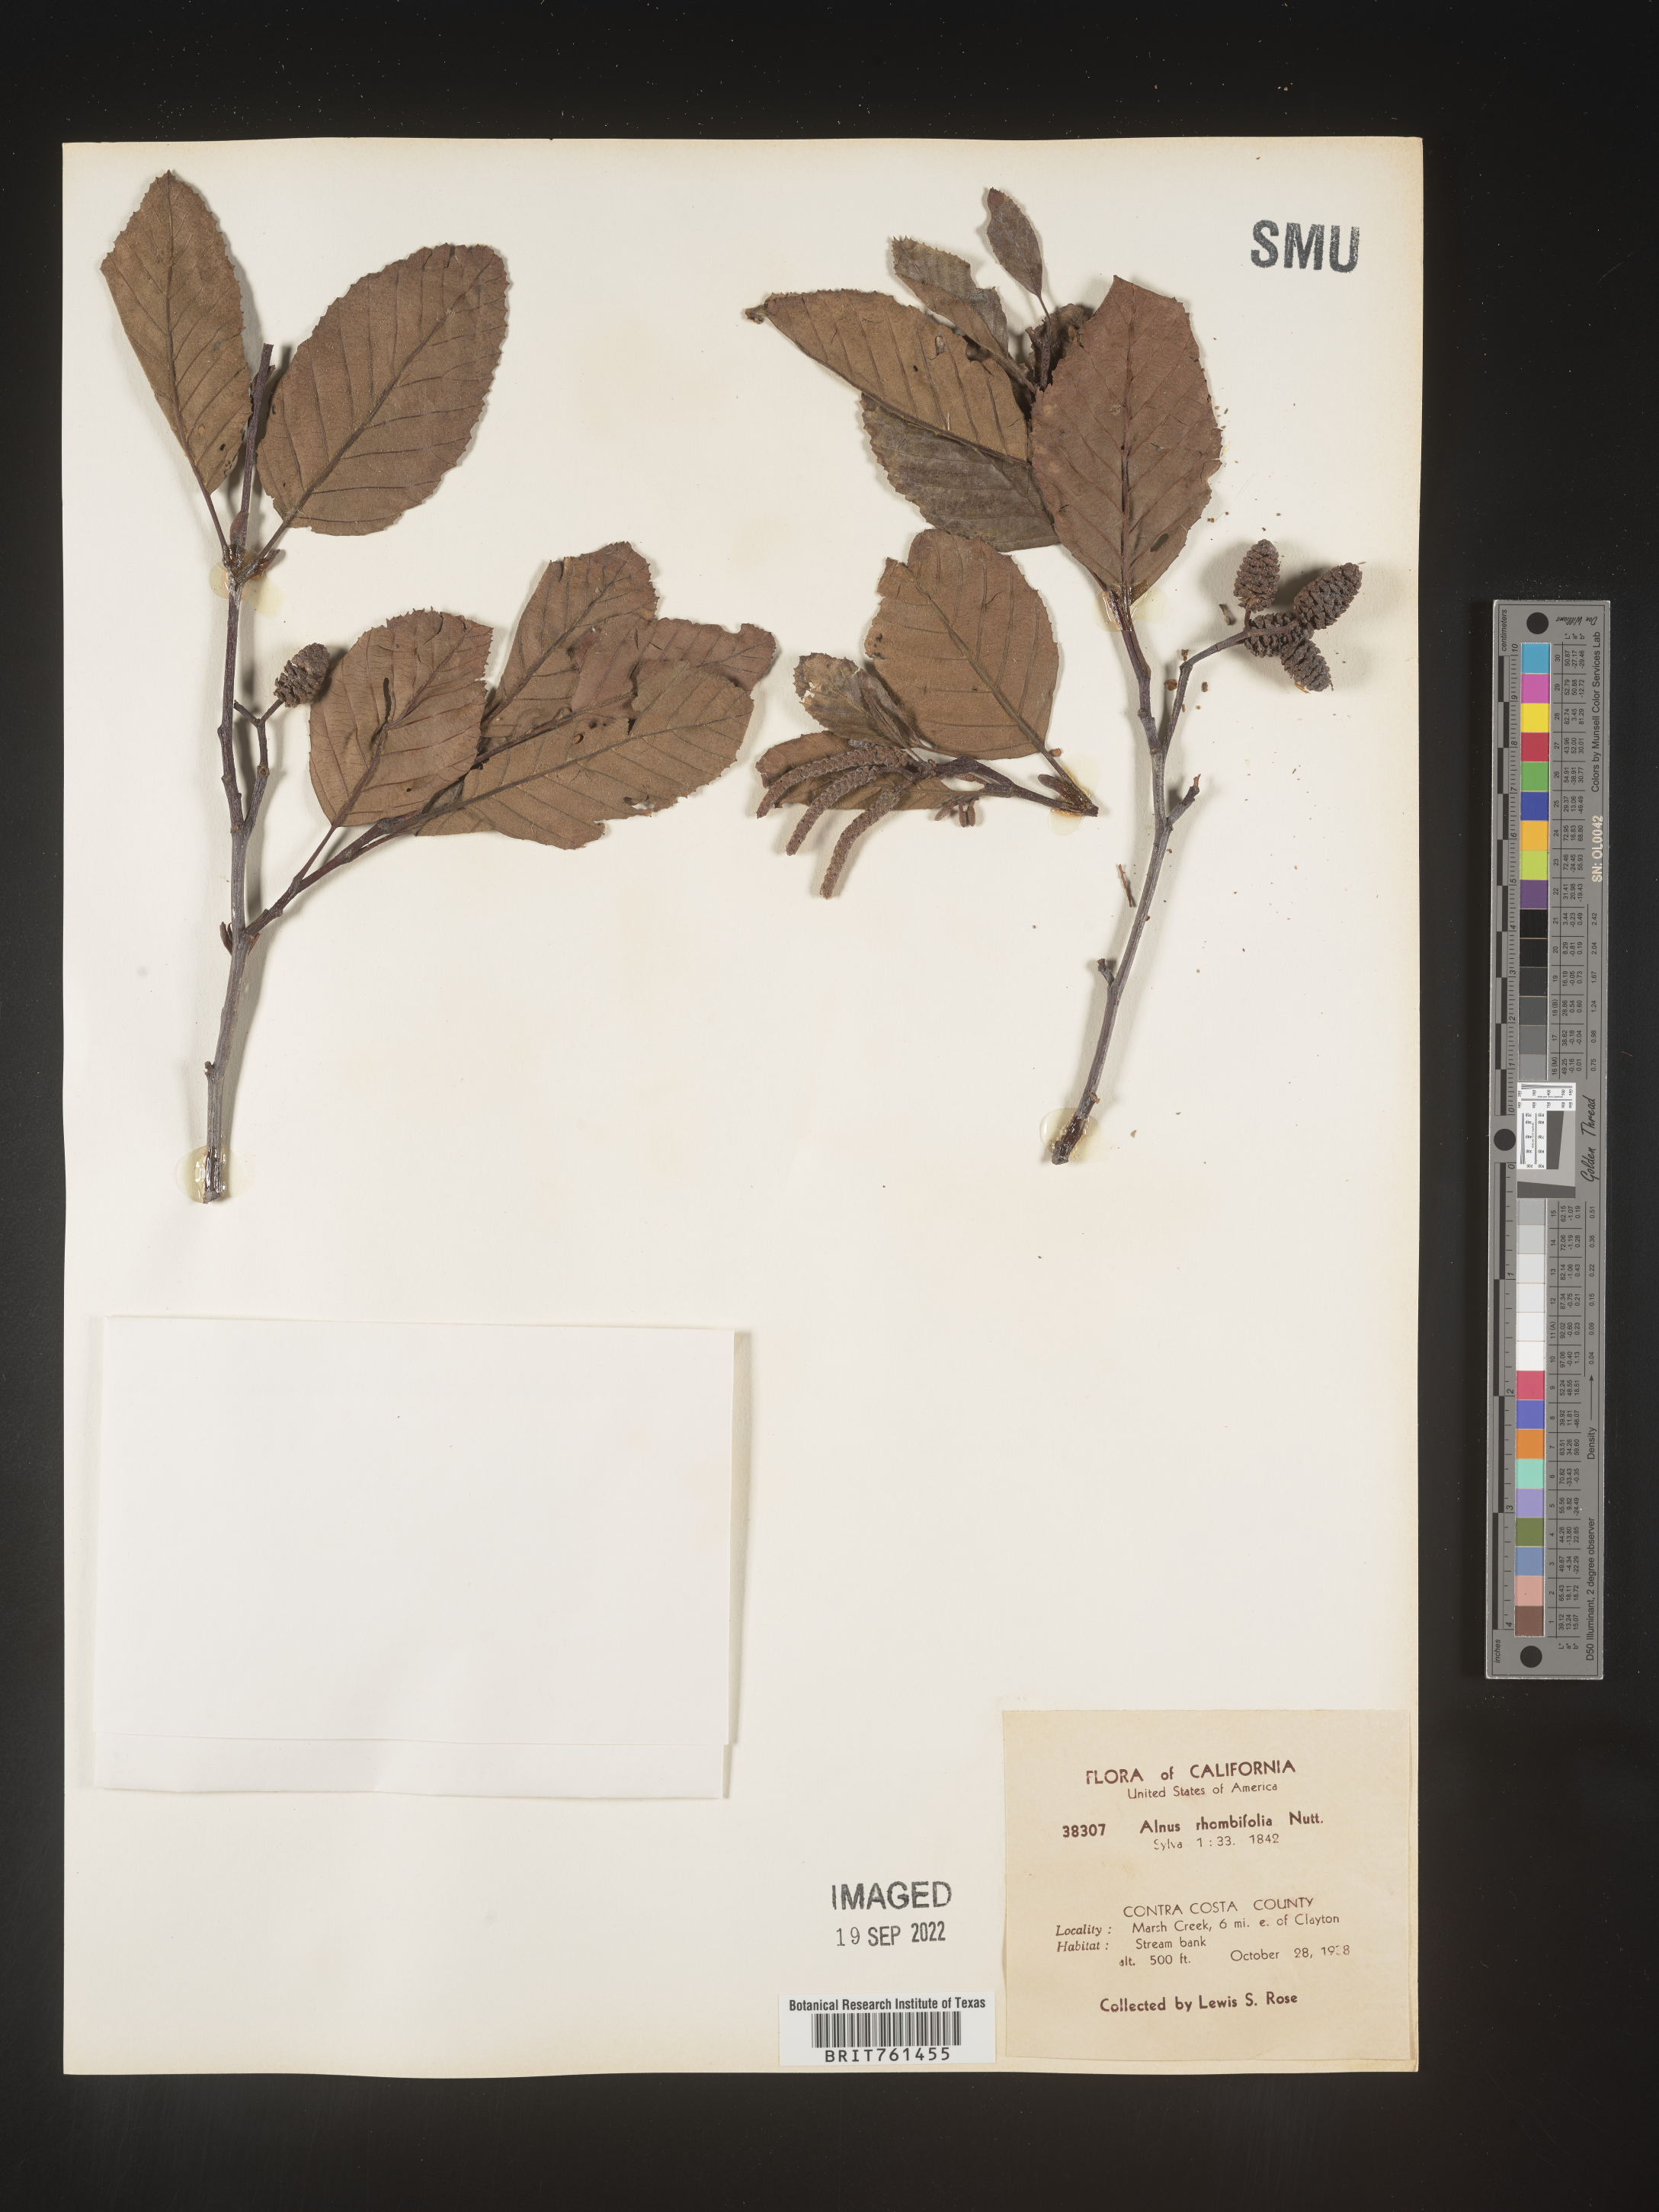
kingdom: Plantae
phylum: Tracheophyta
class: Magnoliopsida
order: Fagales
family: Betulaceae
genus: Alnus
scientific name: Alnus rhombifolia
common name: California alder
